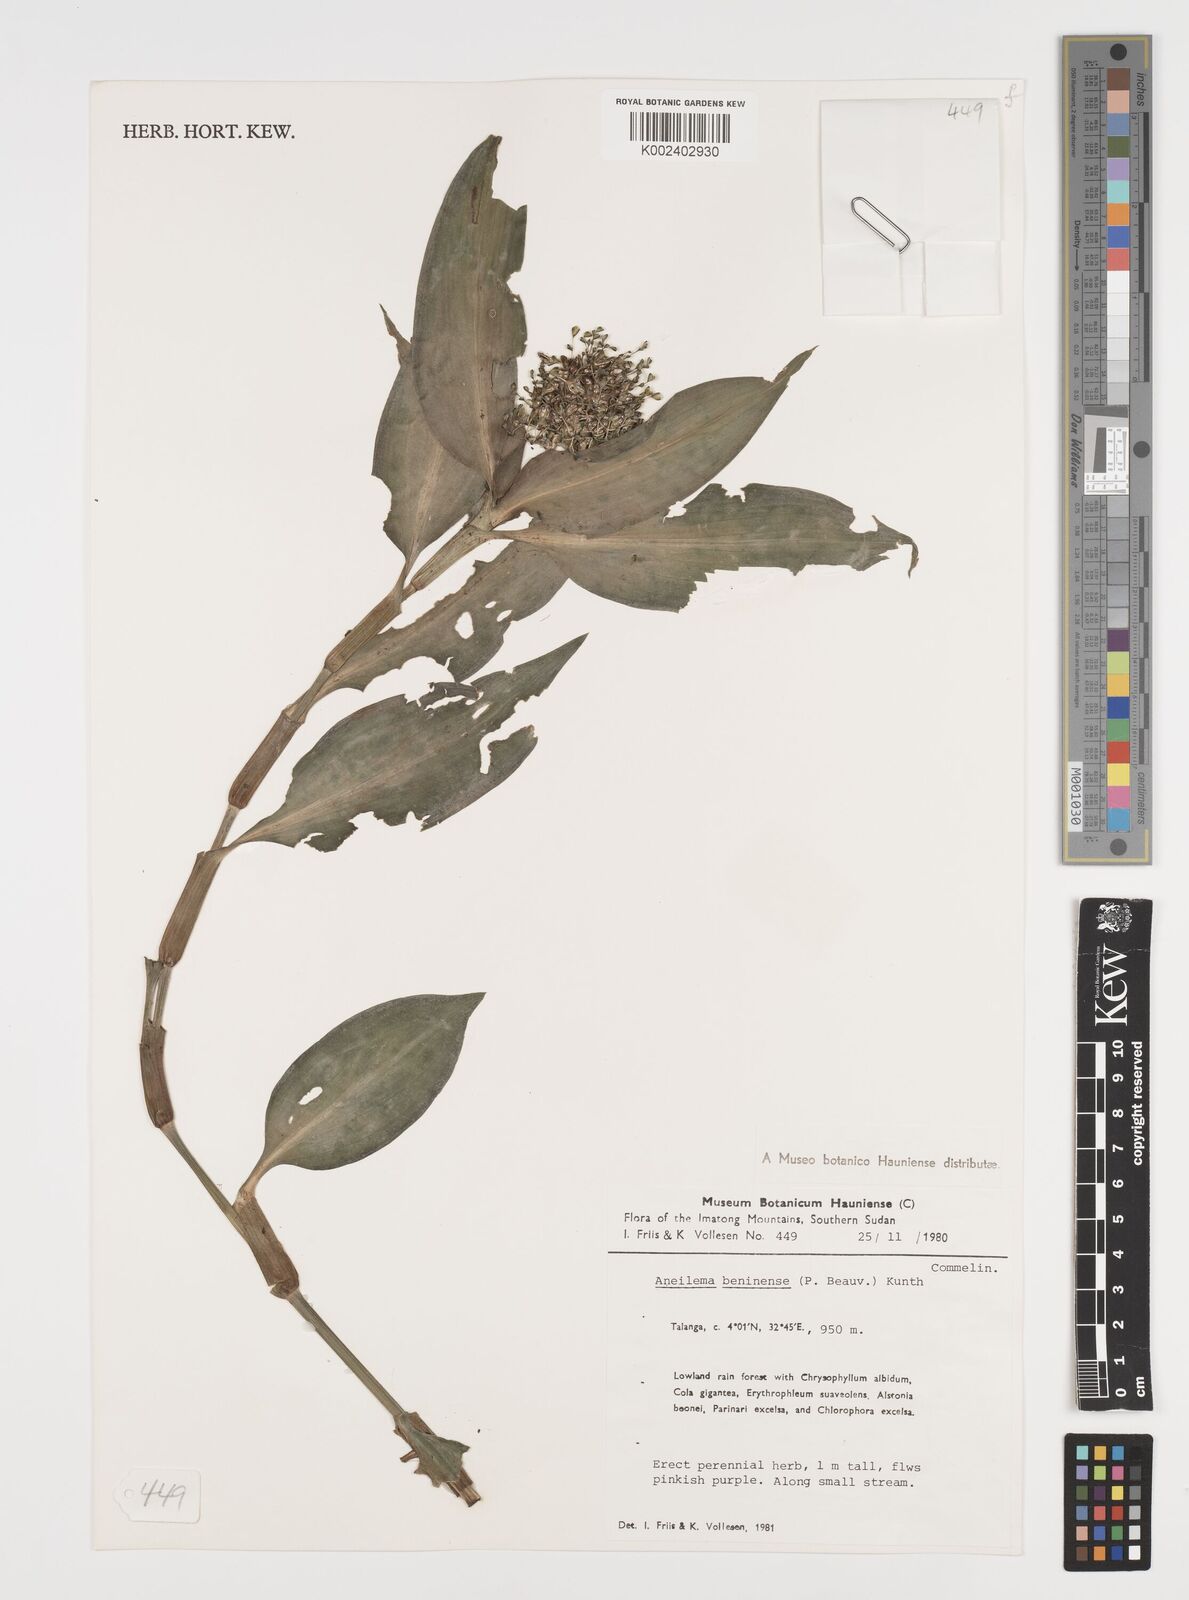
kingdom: Plantae
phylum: Tracheophyta
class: Liliopsida
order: Commelinales
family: Commelinaceae
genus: Aneilema
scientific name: Aneilema beniniense
